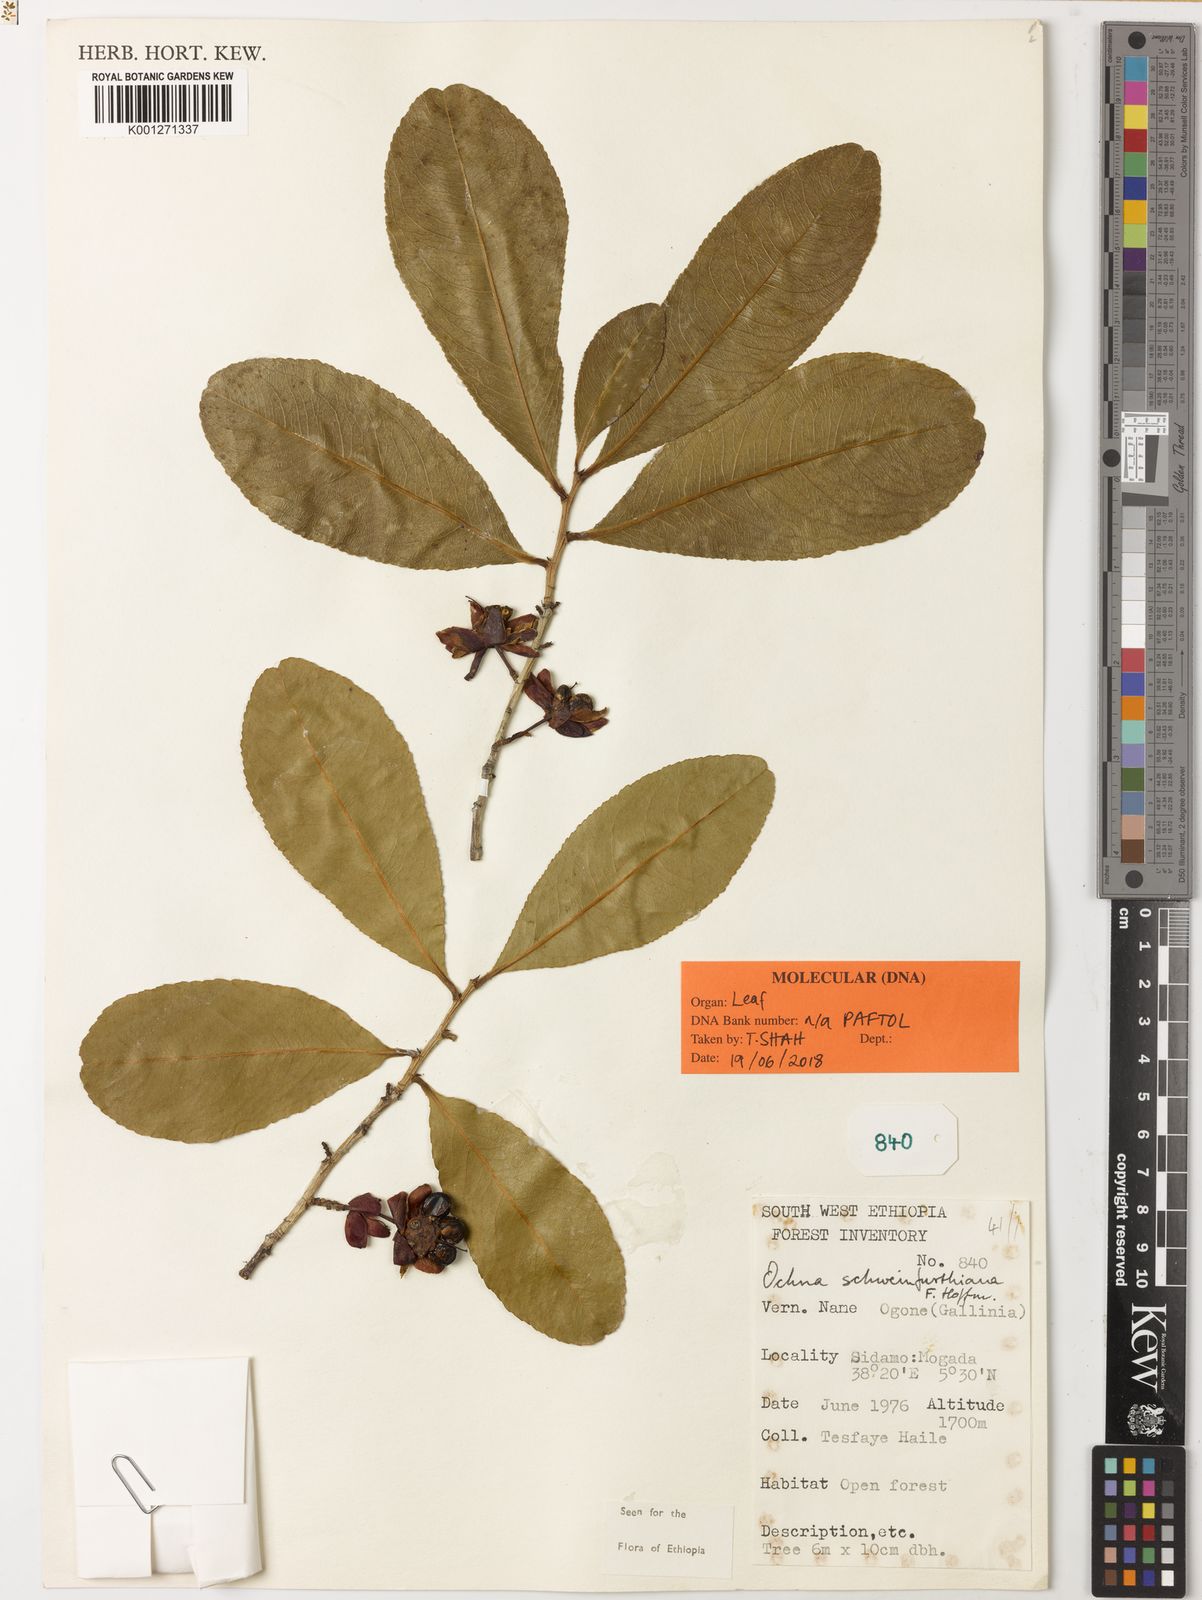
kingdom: Plantae
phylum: Tracheophyta
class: Magnoliopsida
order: Malpighiales
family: Ochnaceae
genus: Ochna
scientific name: Ochna schweinfurthiana
